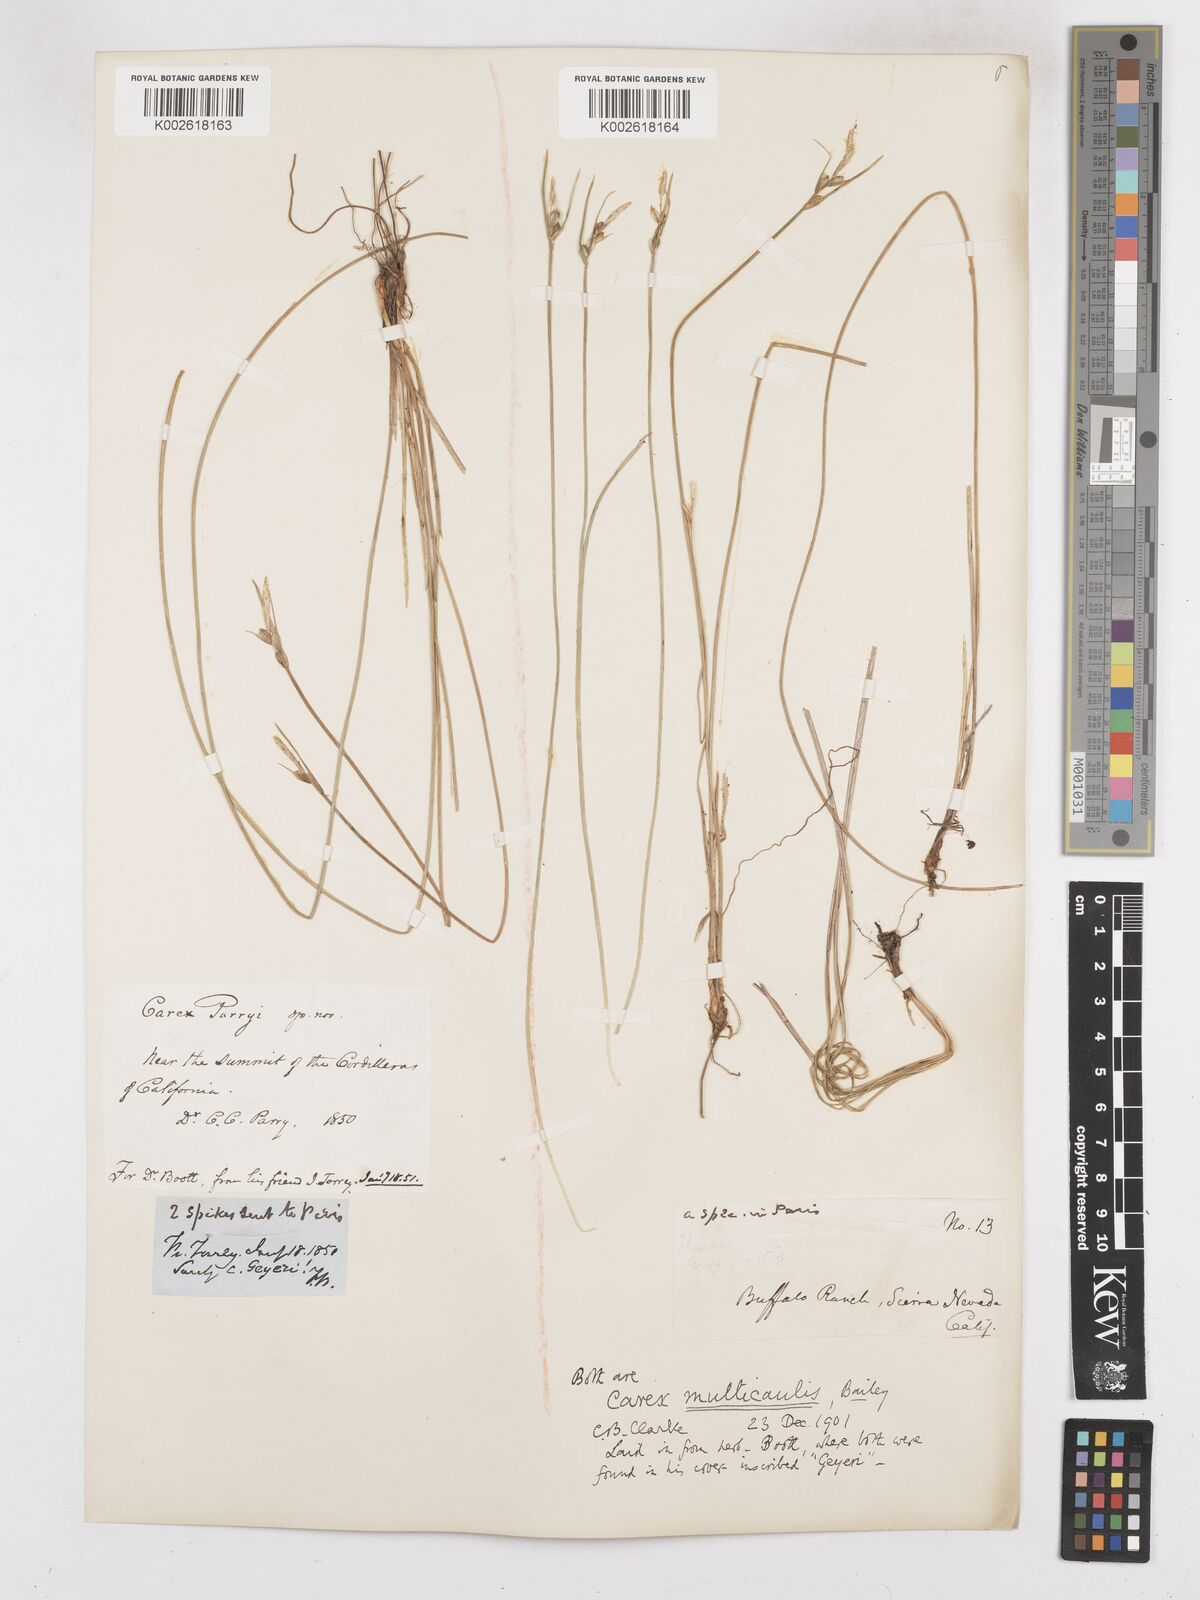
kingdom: Plantae
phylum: Tracheophyta
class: Liliopsida
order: Poales
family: Cyperaceae
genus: Carex
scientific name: Carex multicaulis
